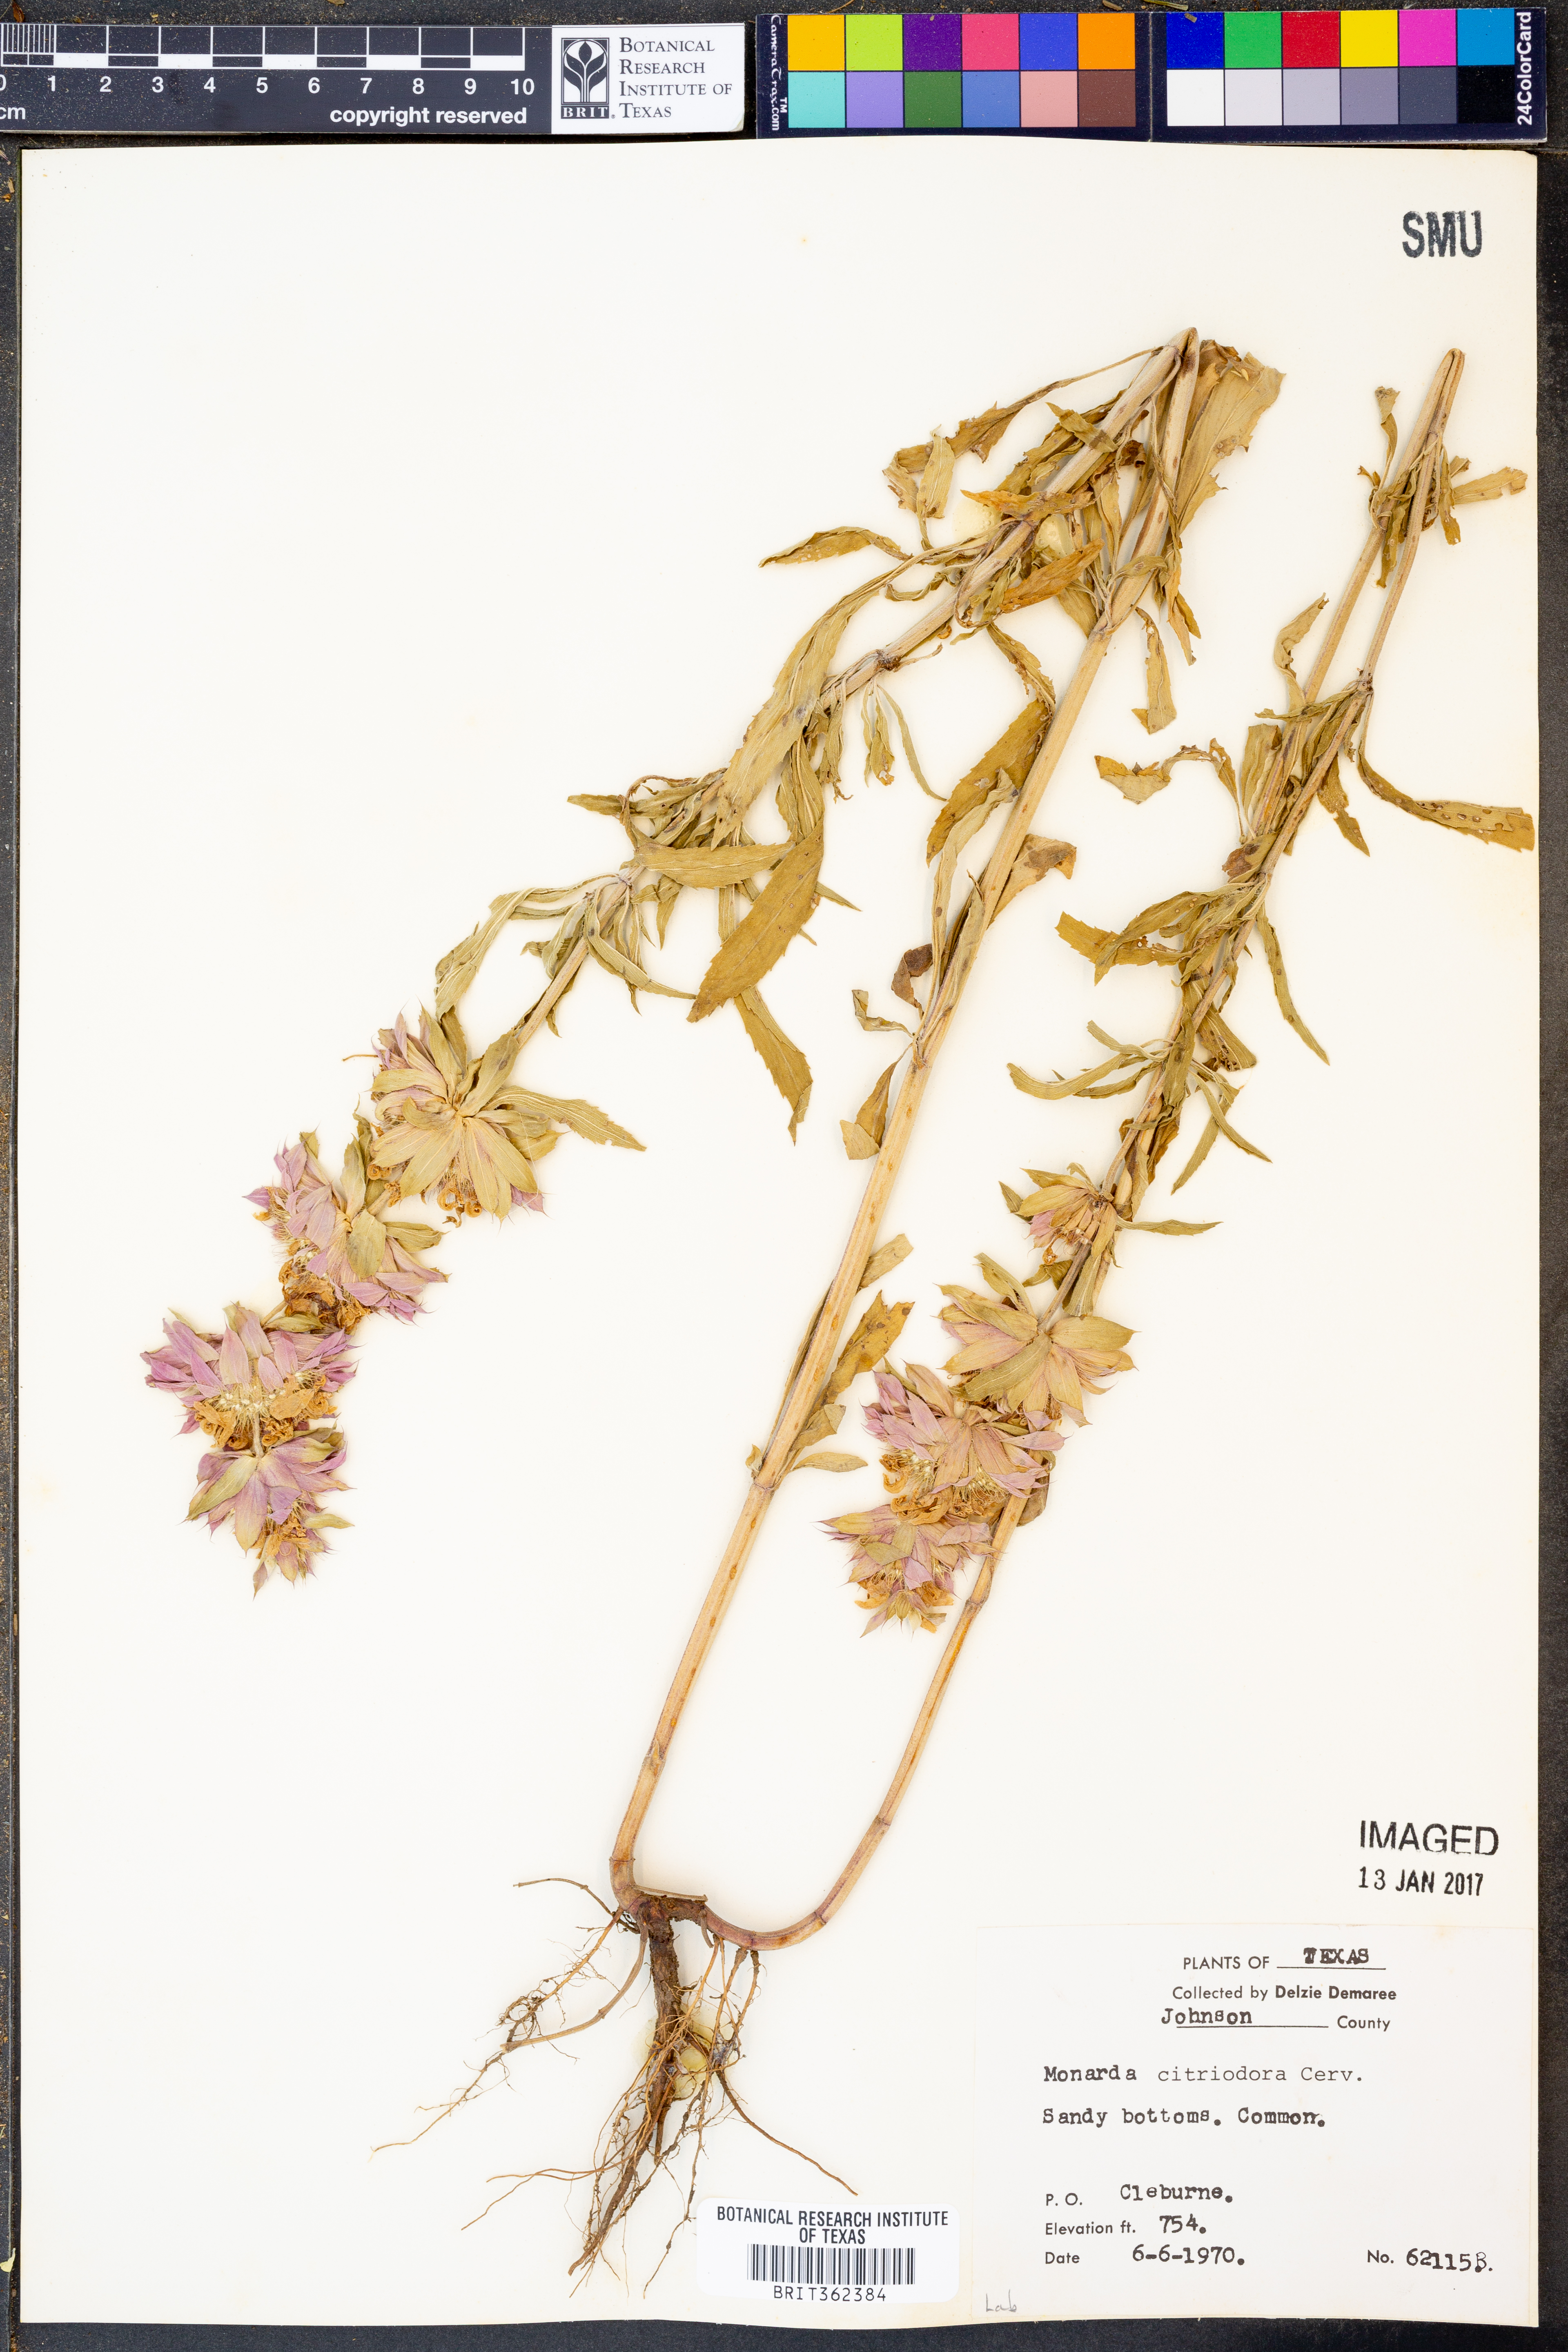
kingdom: Plantae
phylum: Tracheophyta
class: Magnoliopsida
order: Lamiales
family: Lamiaceae
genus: Monarda
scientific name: Monarda citriodora
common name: Lemon beebalm
